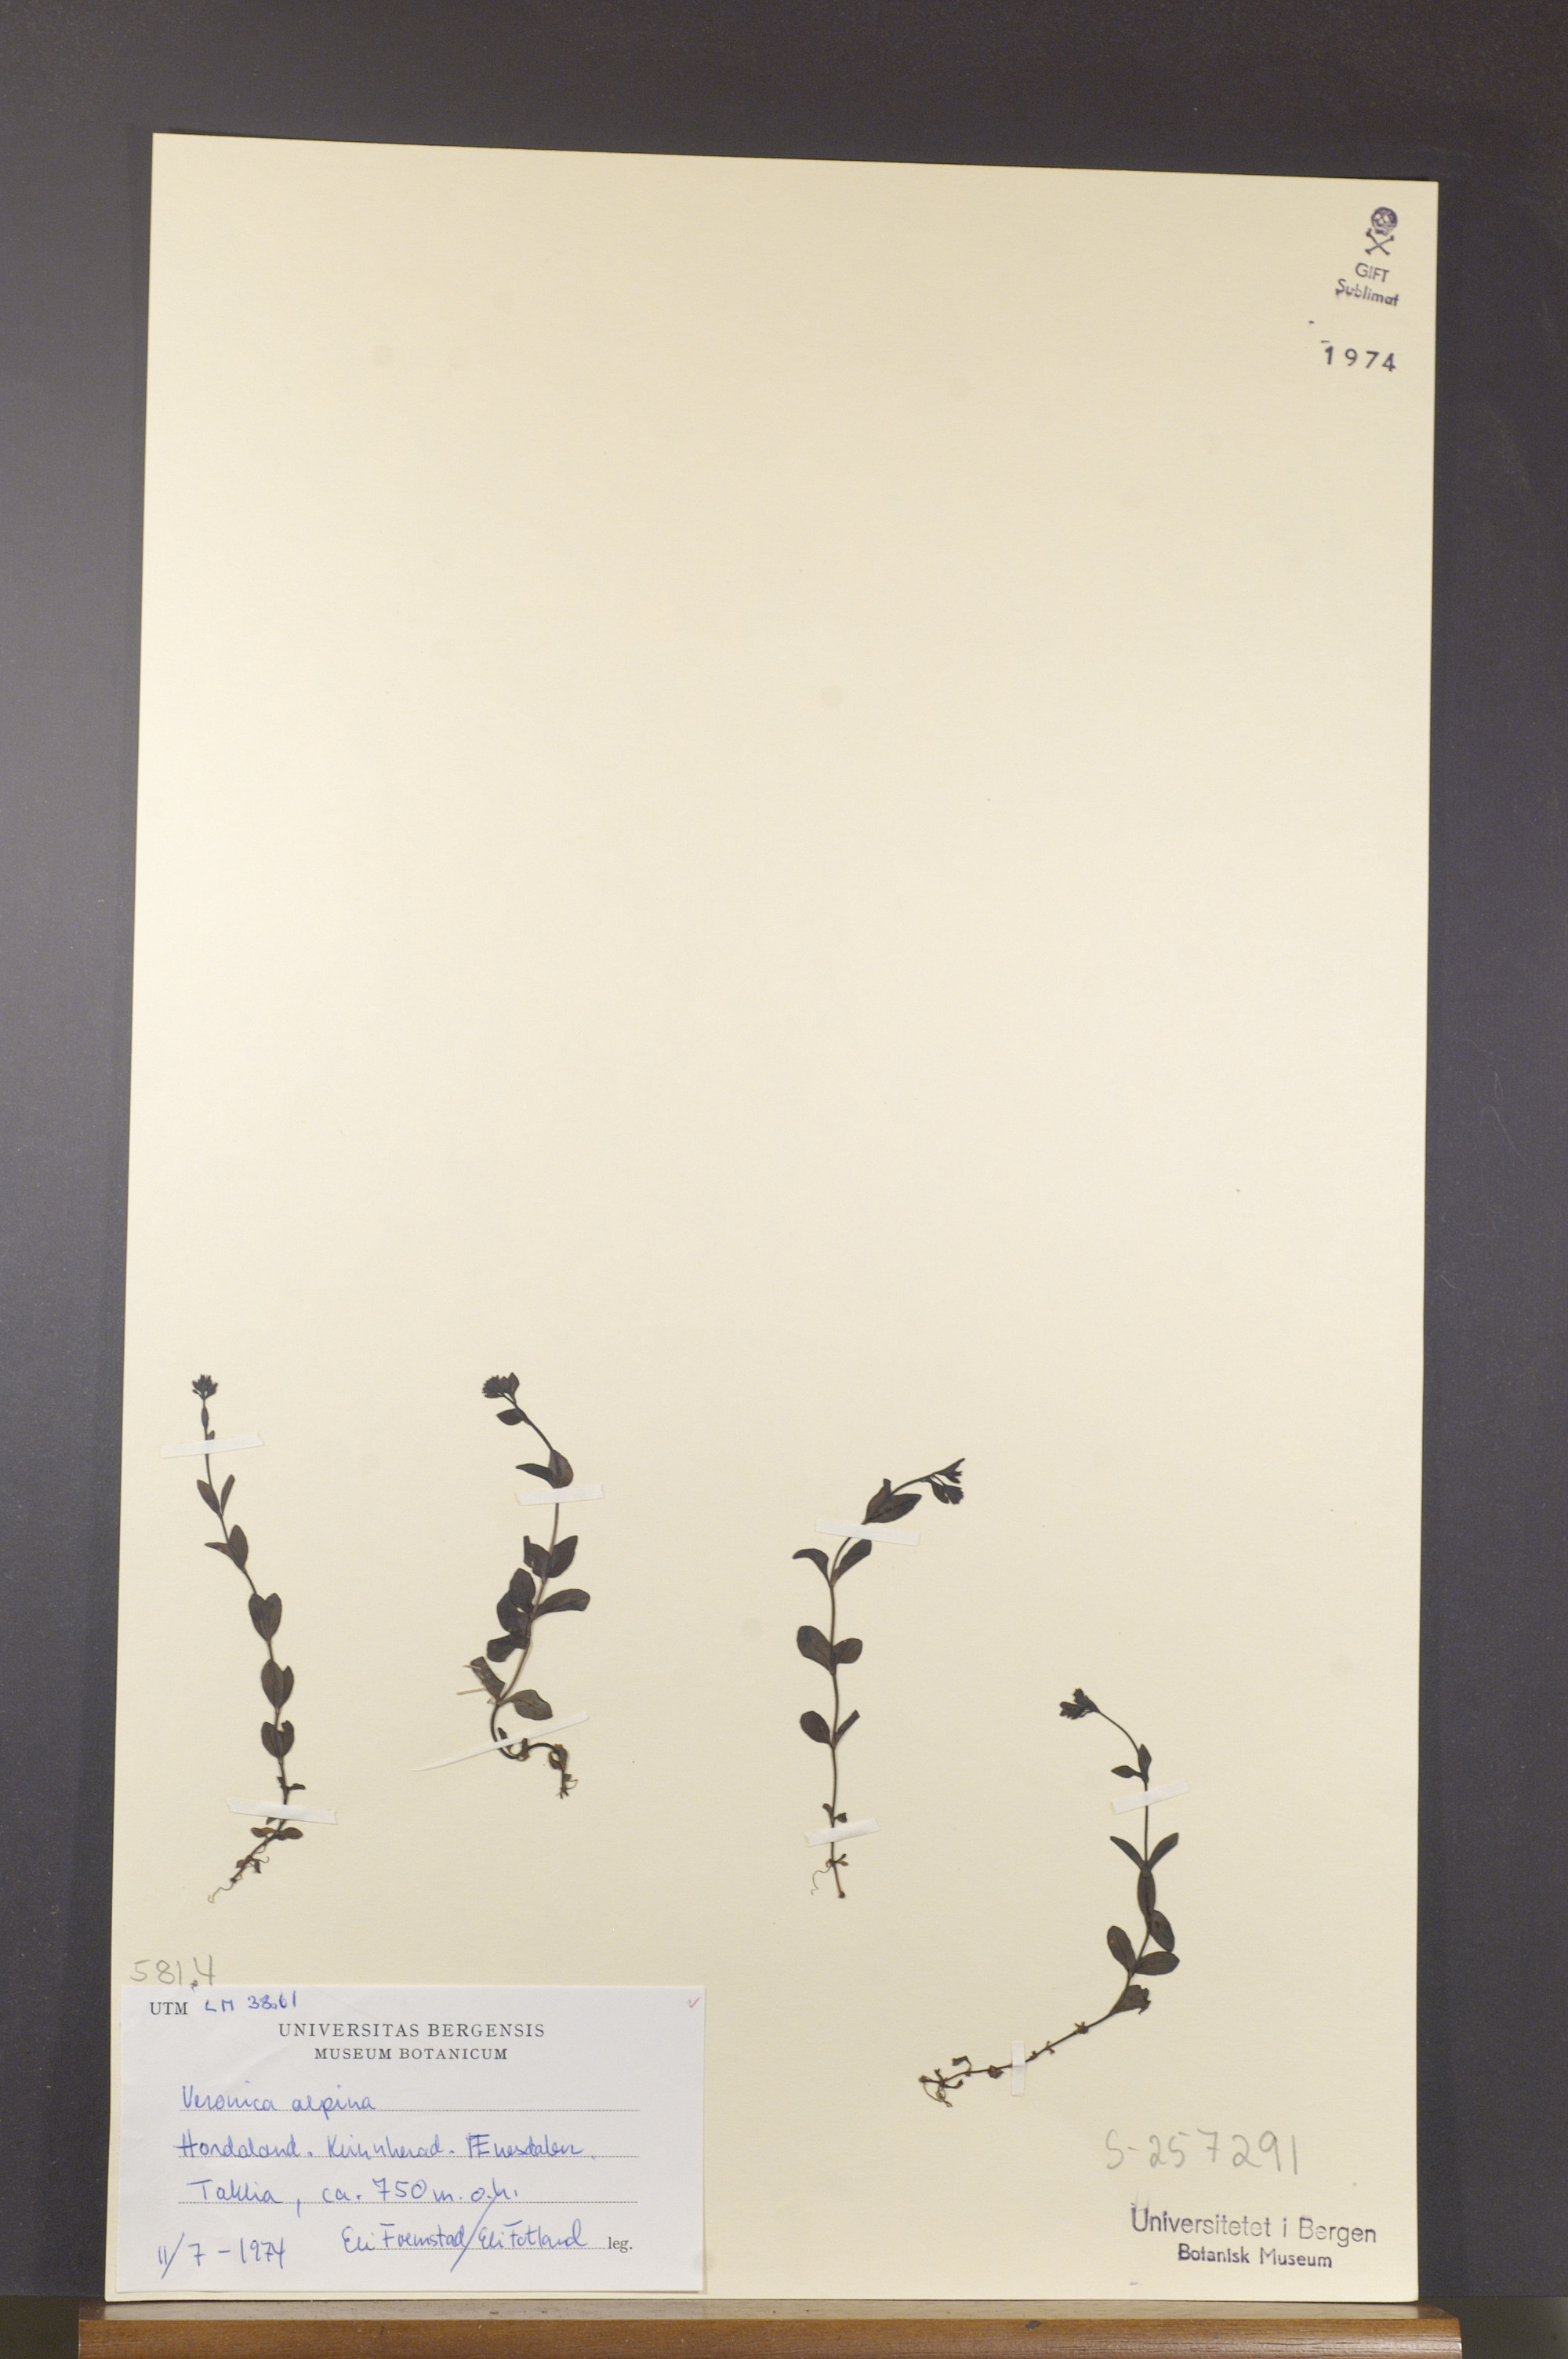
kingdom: Plantae
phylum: Tracheophyta
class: Magnoliopsida
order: Lamiales
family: Plantaginaceae
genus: Veronica
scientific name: Veronica alpina
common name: Alpine speedwell
